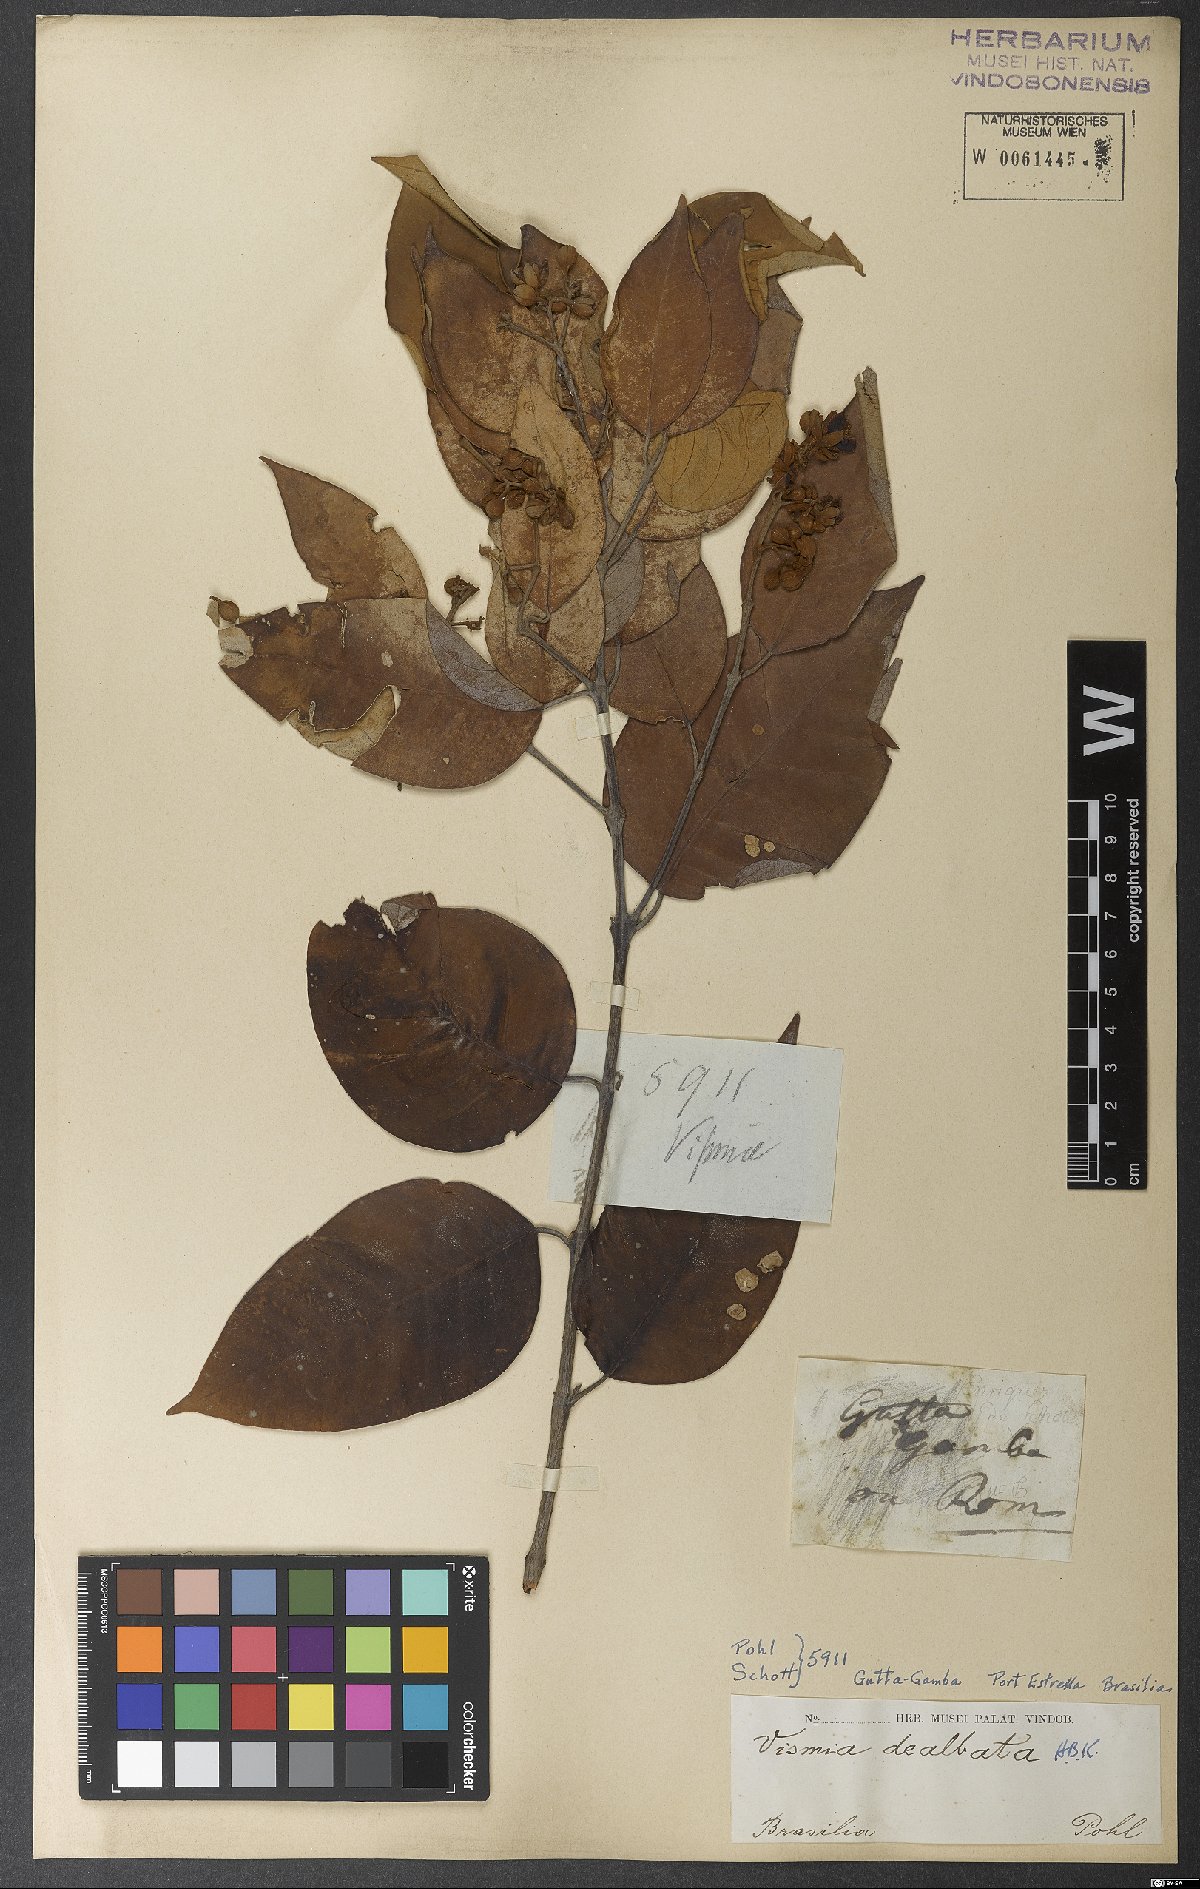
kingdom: Plantae
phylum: Tracheophyta
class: Magnoliopsida
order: Malpighiales
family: Hypericaceae
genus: Vismia
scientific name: Vismia baccifera
